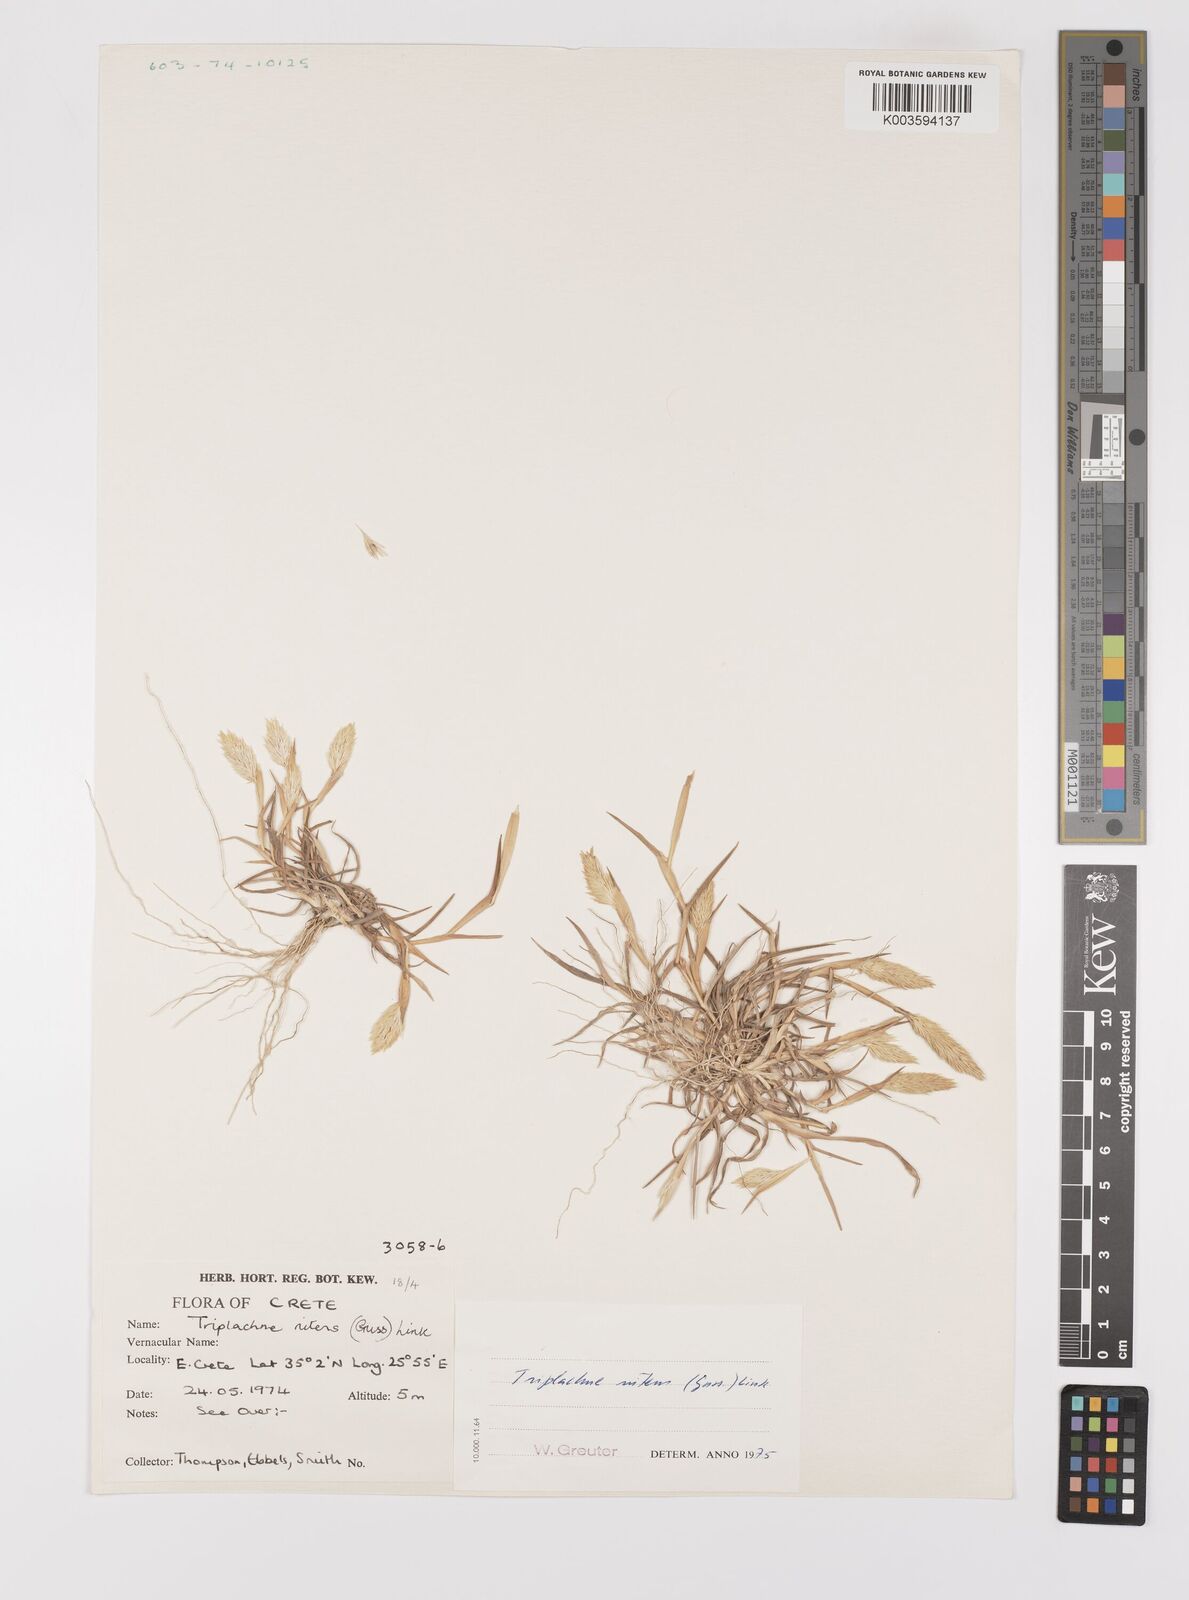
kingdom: Plantae
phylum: Tracheophyta
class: Liliopsida
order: Poales
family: Poaceae
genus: Triplachne
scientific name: Triplachne nitens
